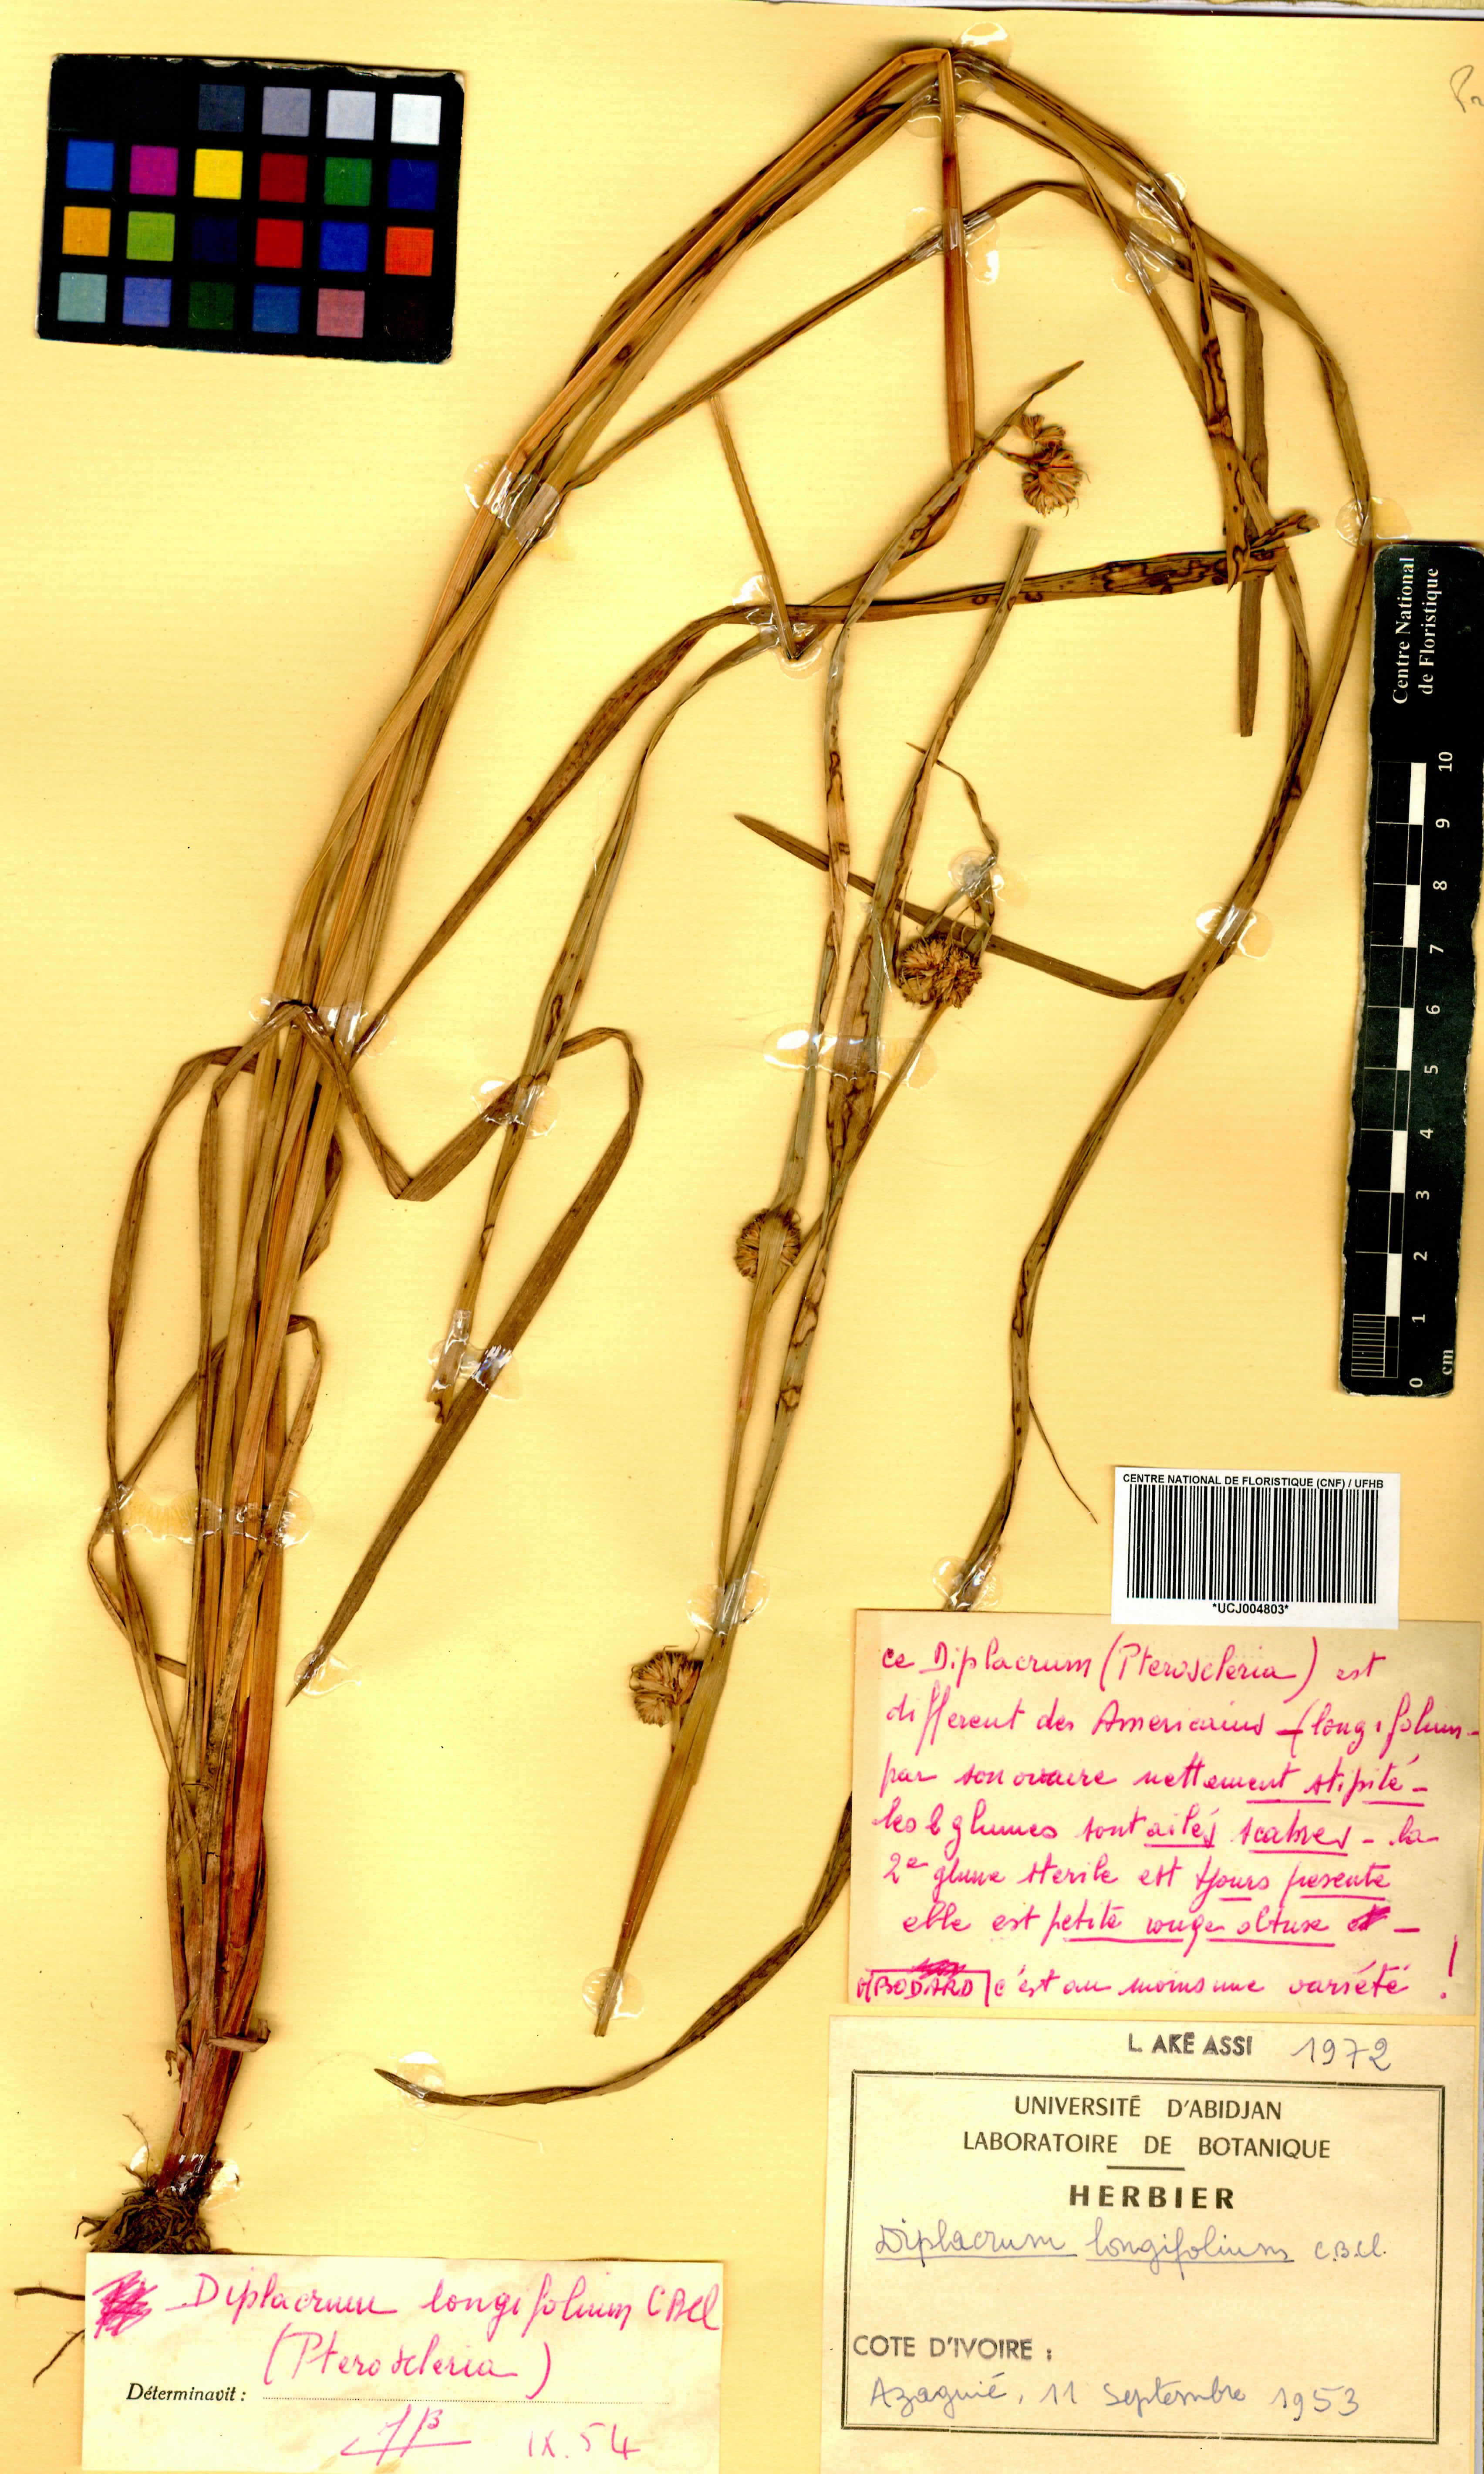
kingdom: Plantae
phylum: Tracheophyta
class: Liliopsida
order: Poales
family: Cyperaceae
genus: Diplacrum
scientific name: Diplacrum capitatum
